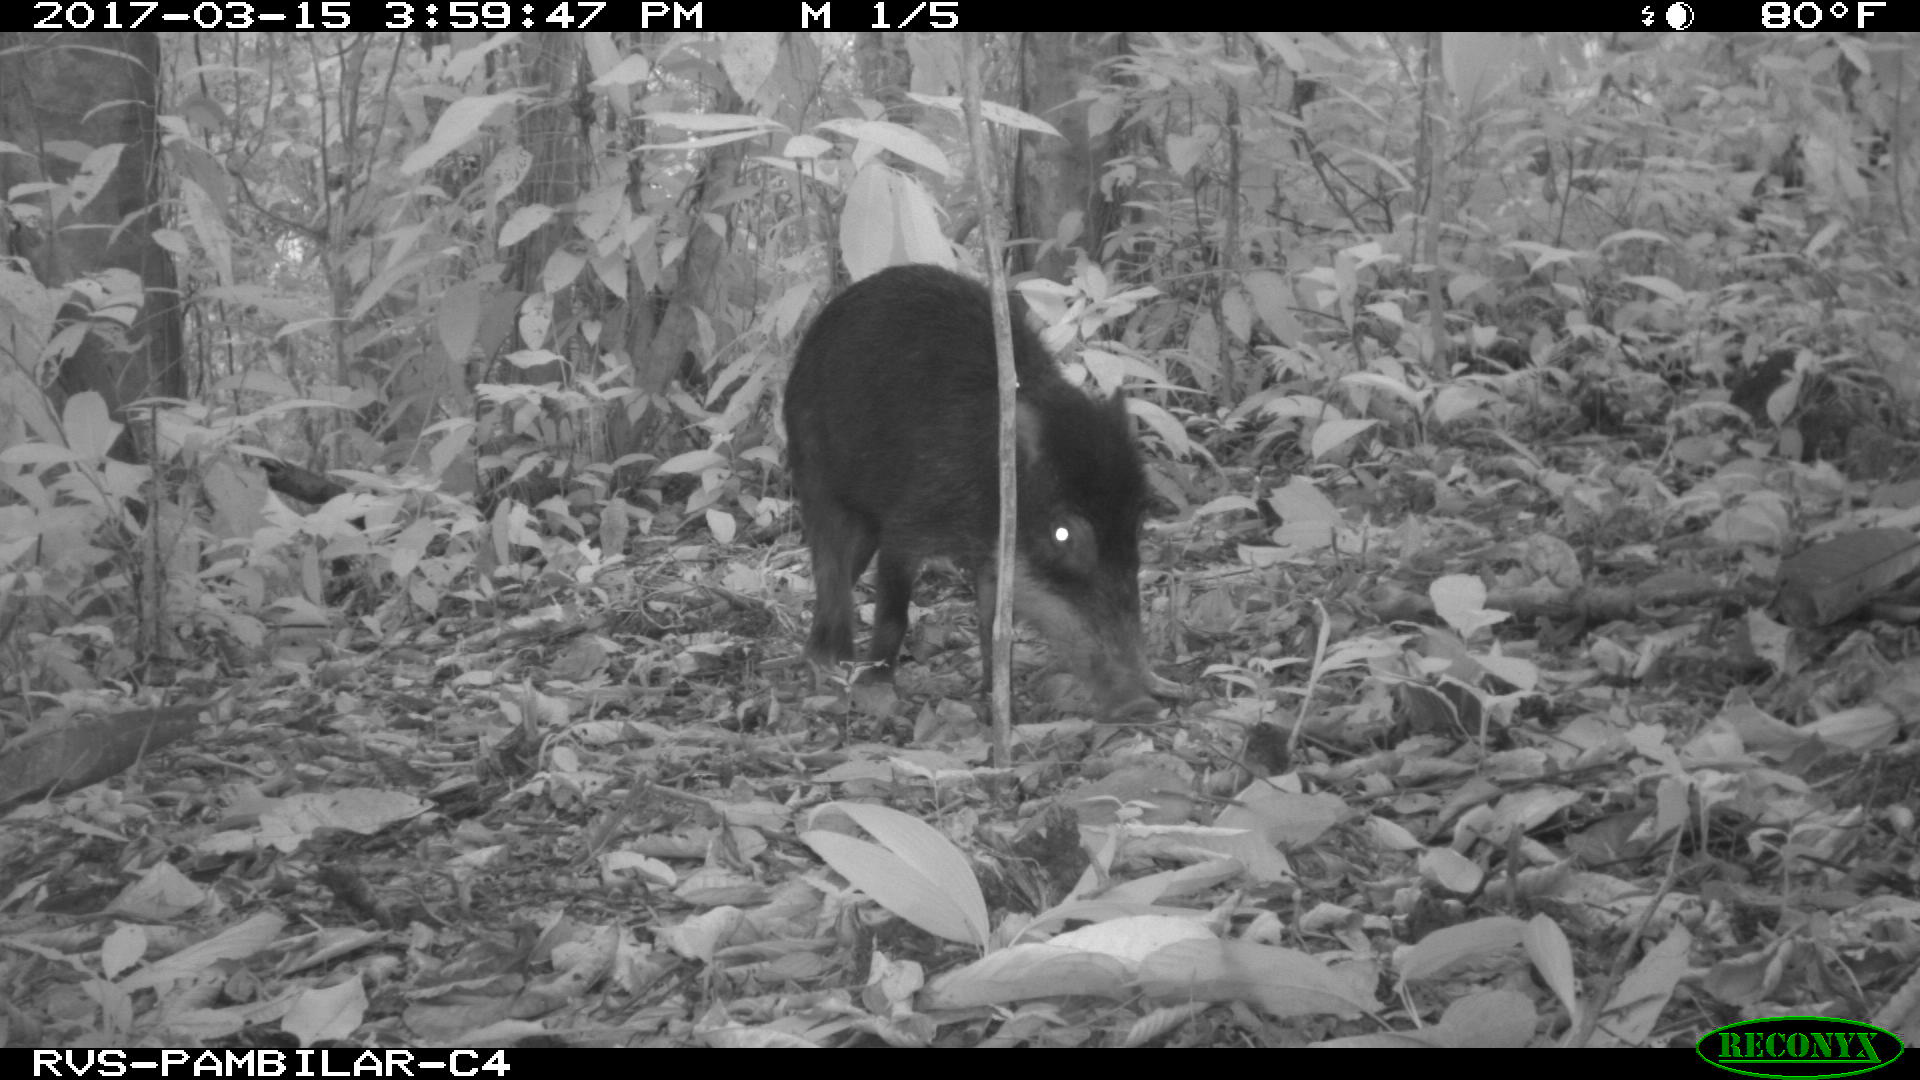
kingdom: Animalia
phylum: Chordata
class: Mammalia
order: Artiodactyla
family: Tayassuidae
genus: Tayassu
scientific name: Tayassu pecari
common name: White-lipped peccary
